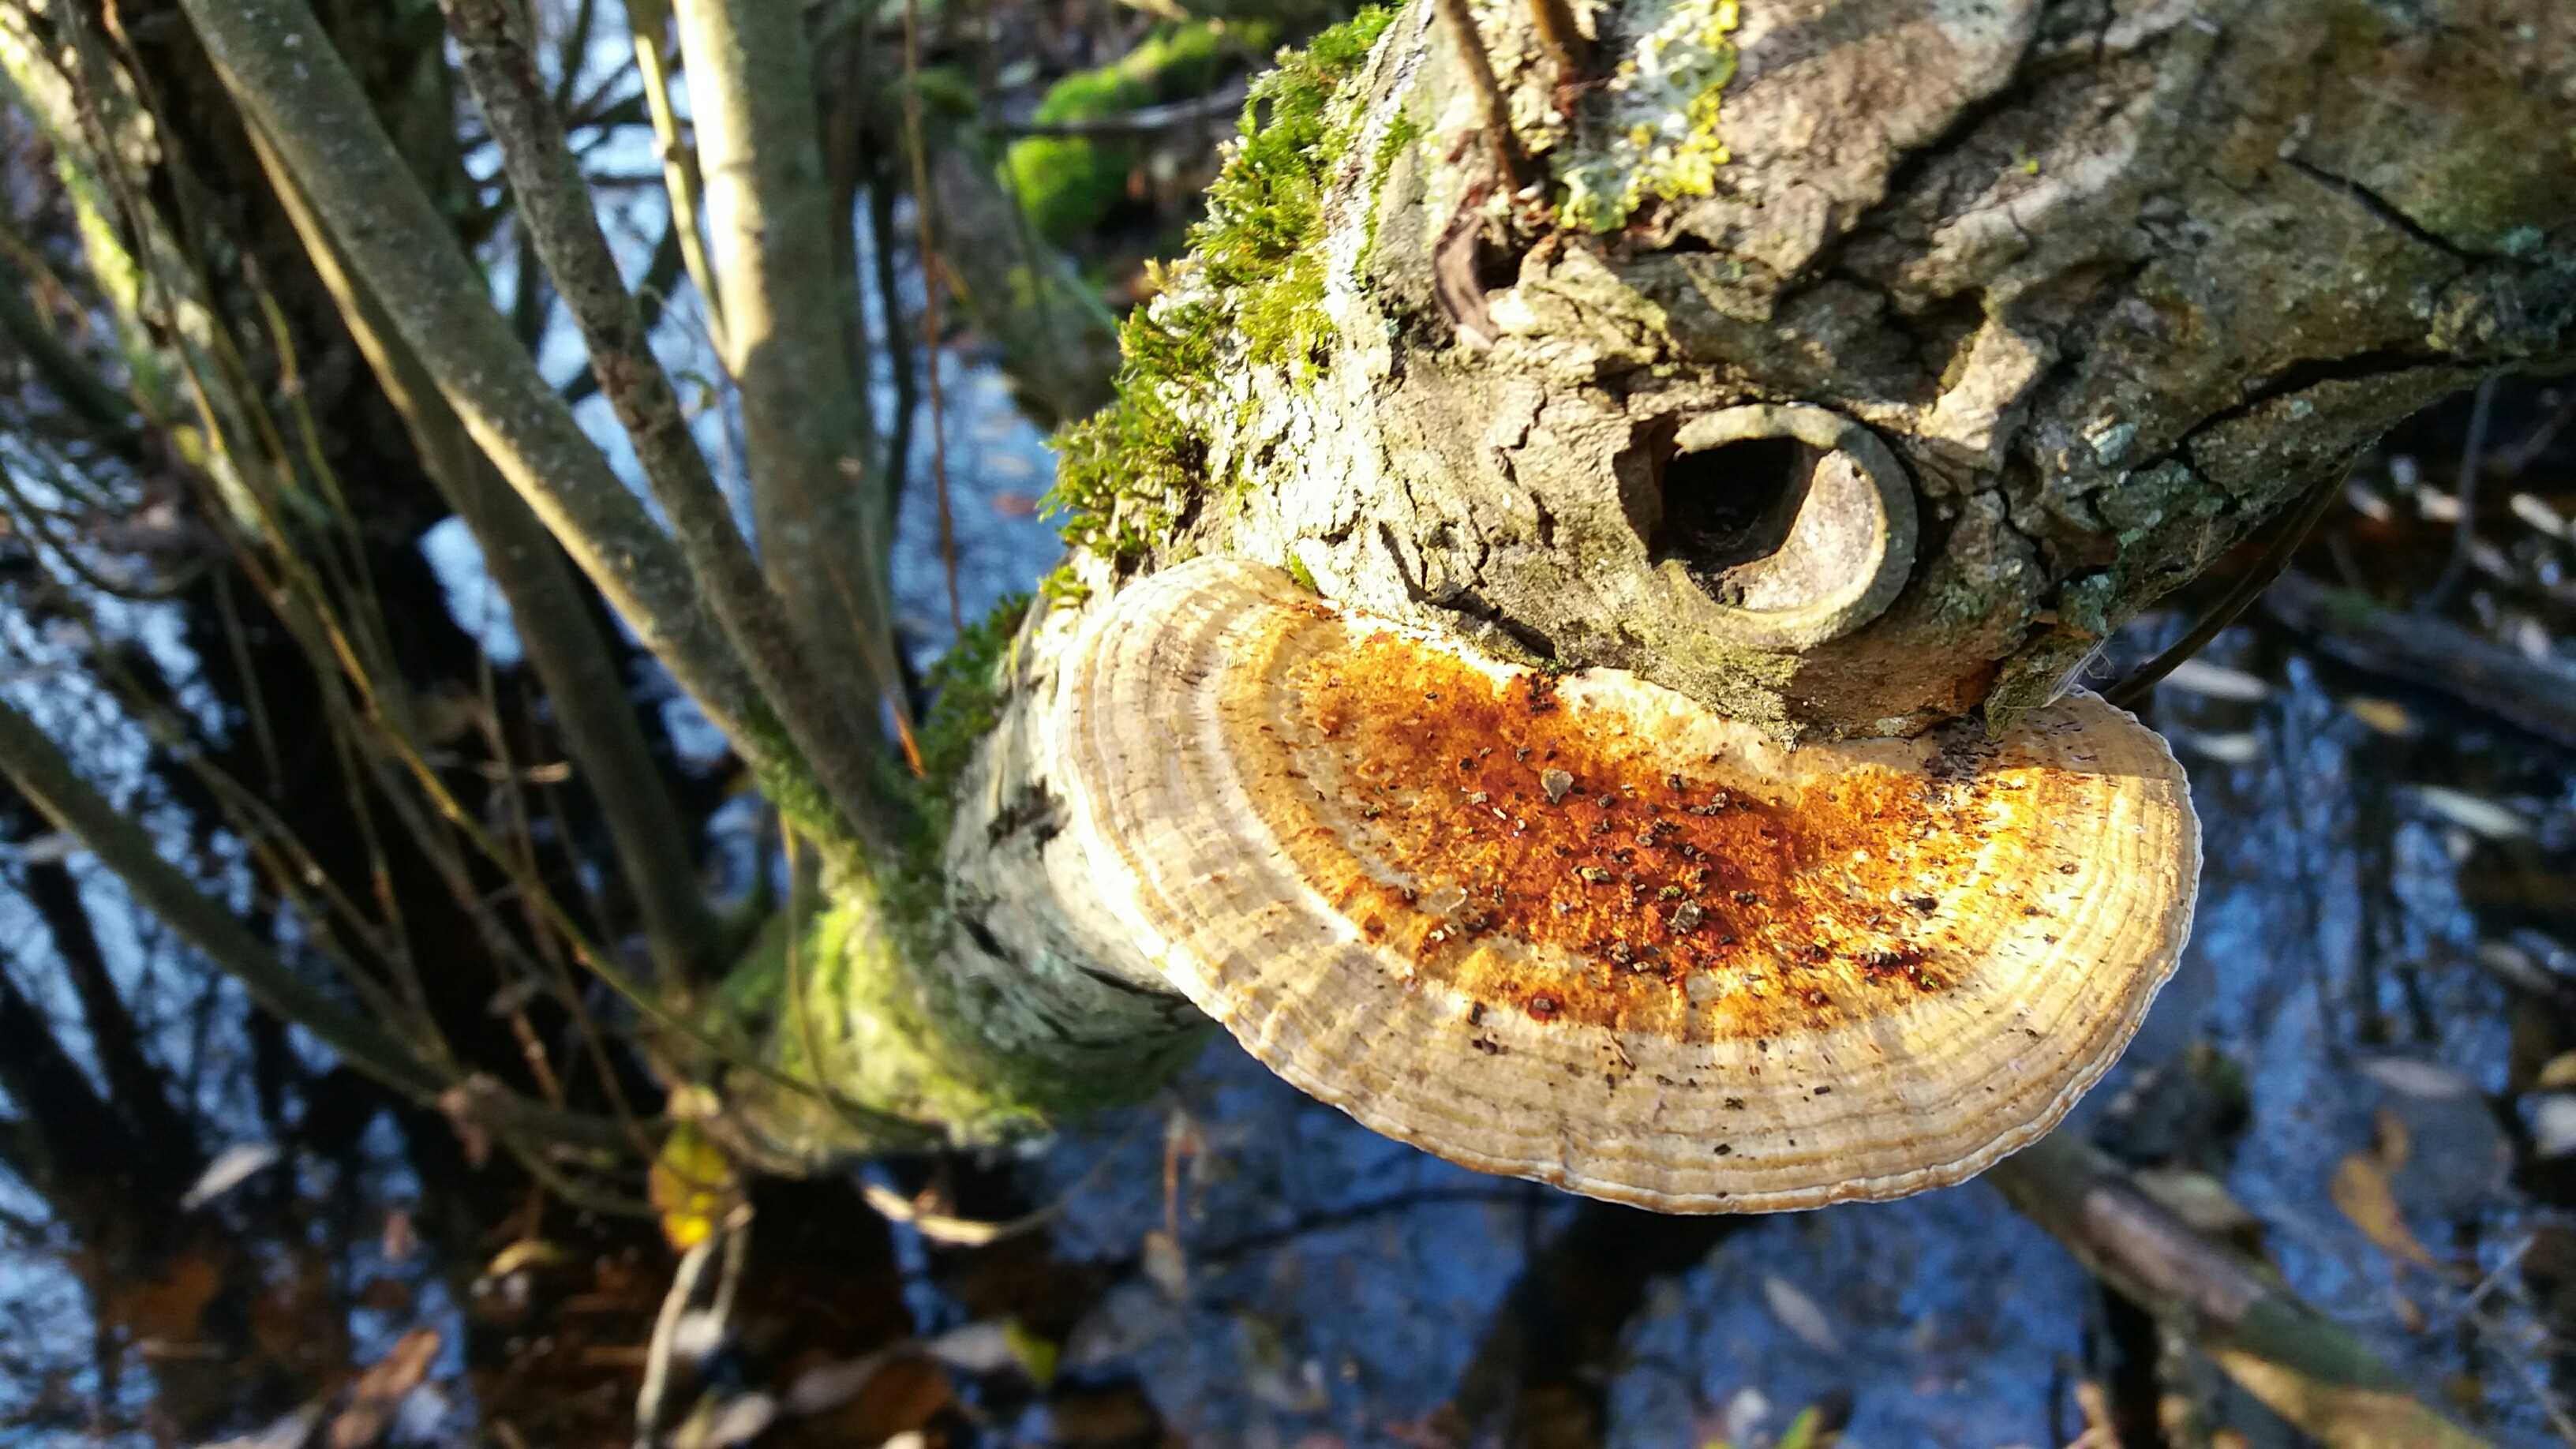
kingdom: Fungi
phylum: Basidiomycota
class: Agaricomycetes
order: Polyporales
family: Polyporaceae
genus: Daedaleopsis
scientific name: Daedaleopsis confragosa
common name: rødmende læderporesvamp
